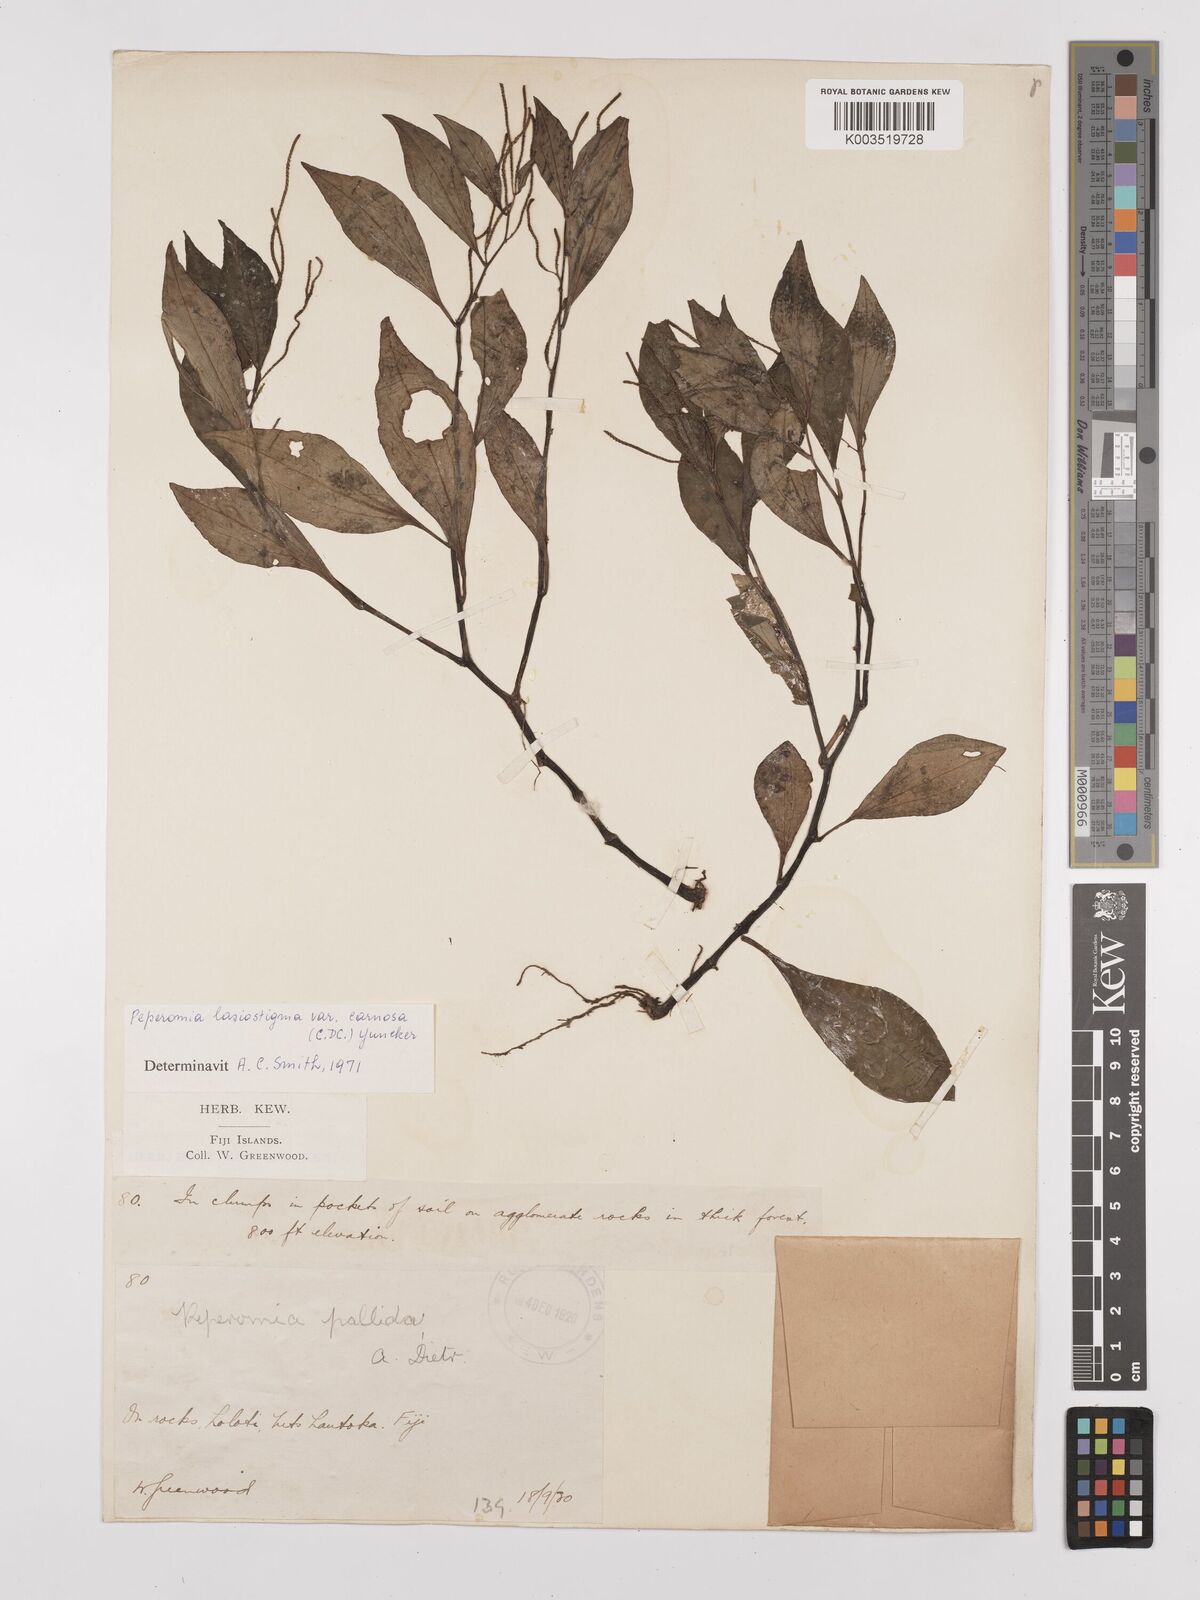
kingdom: Plantae
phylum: Tracheophyta
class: Magnoliopsida
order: Piperales
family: Piperaceae
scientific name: Piperaceae
